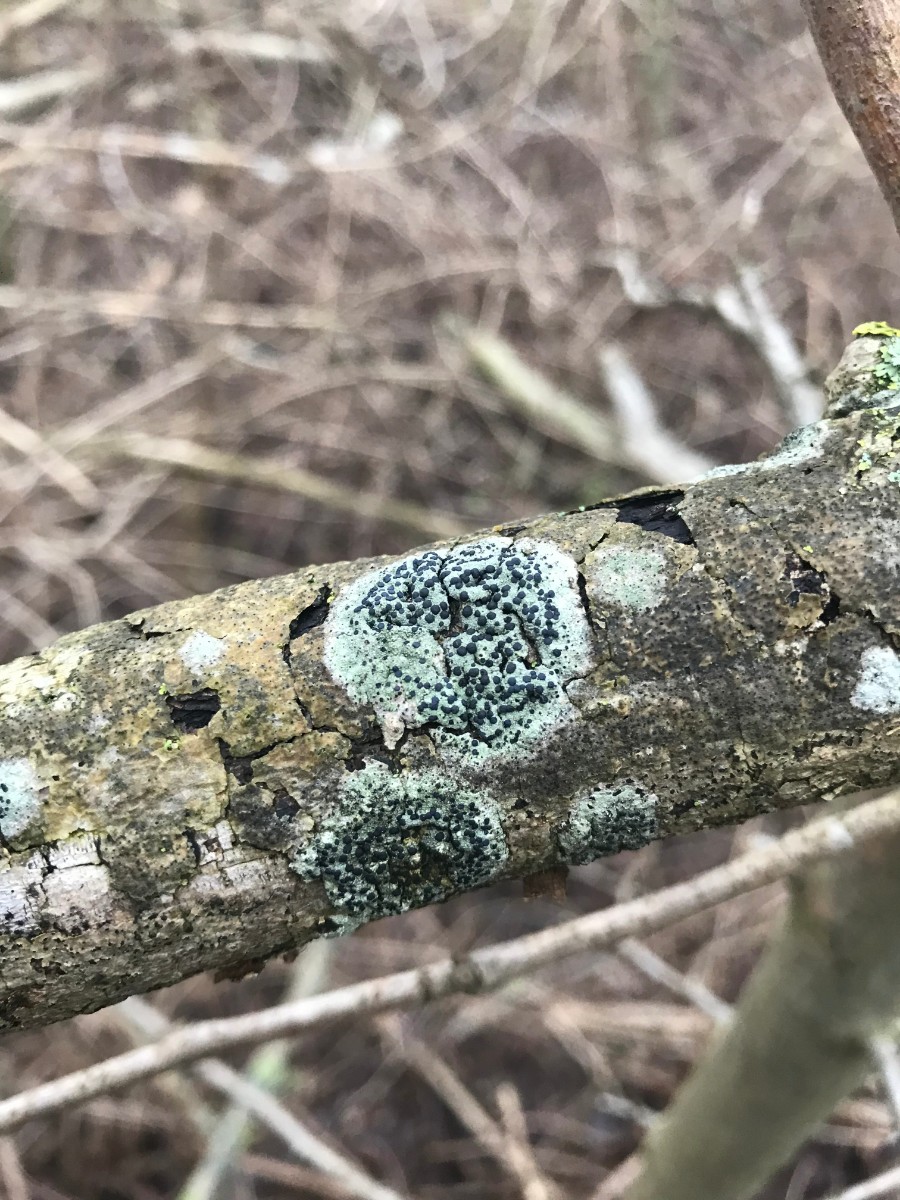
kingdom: Fungi
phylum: Ascomycota
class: Lecanoromycetes
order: Lecanorales
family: Lecanoraceae
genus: Lecidella
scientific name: Lecidella elaeochroma
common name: grågrøn skivelav
